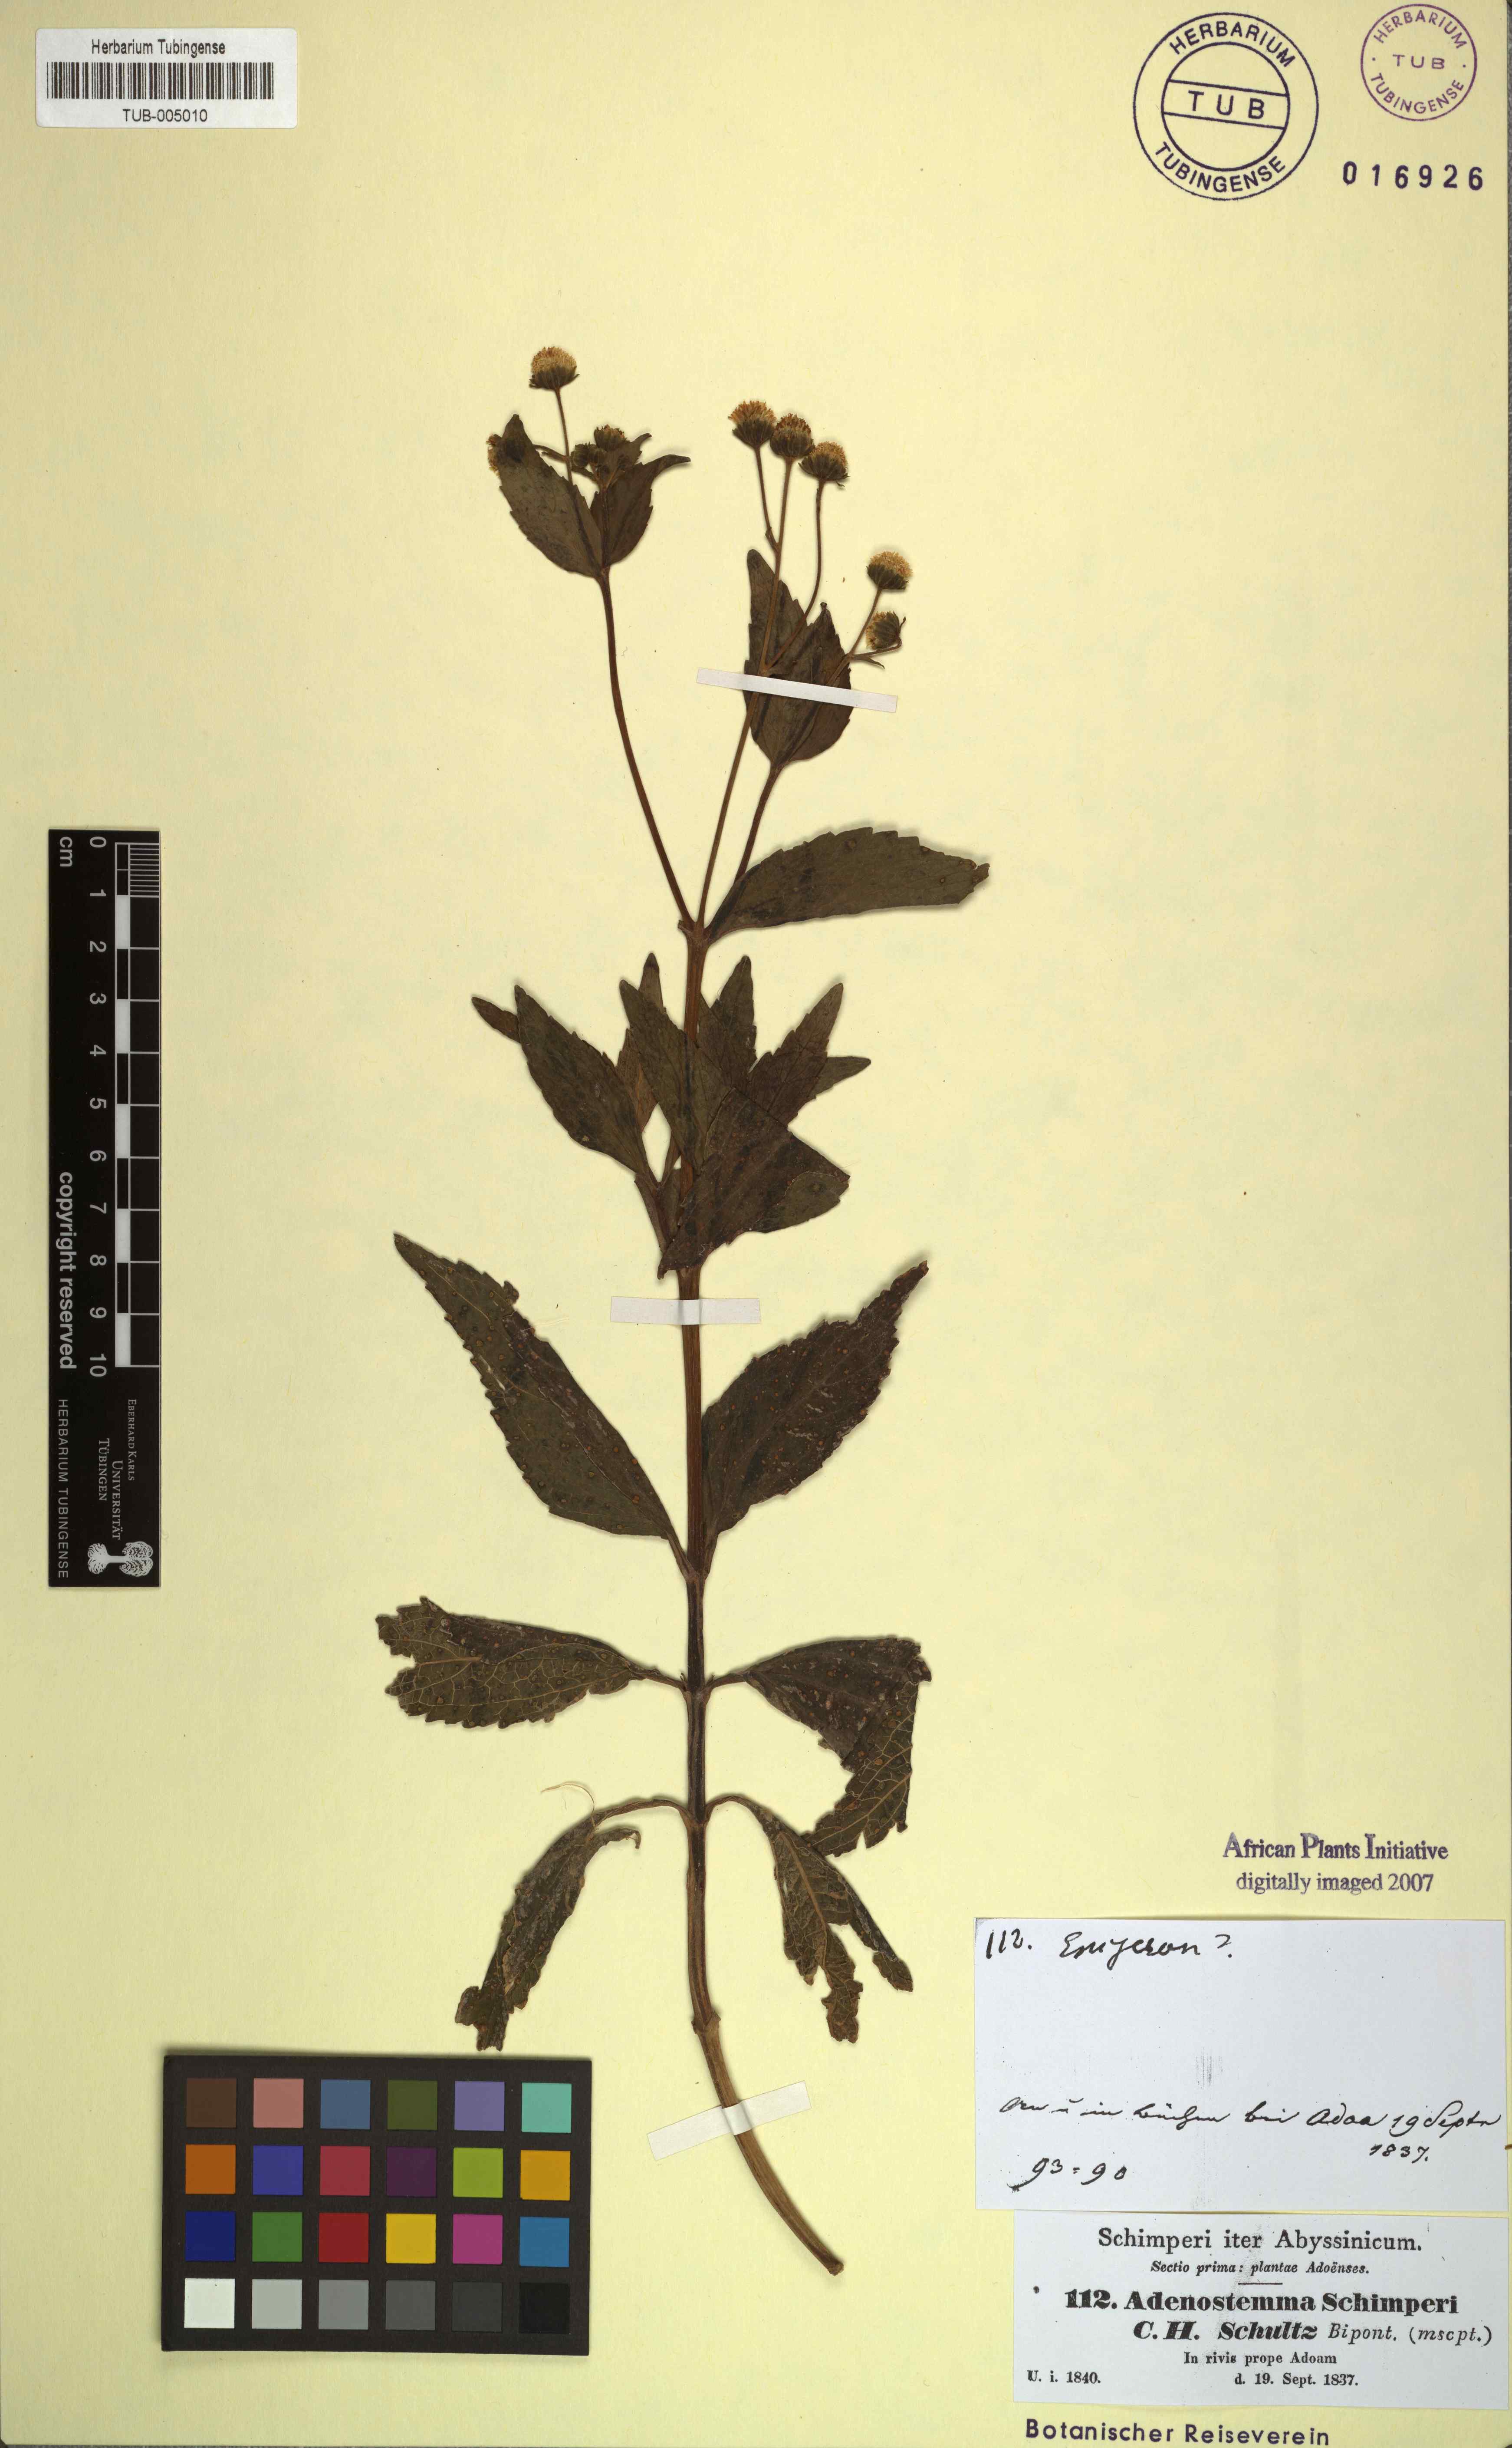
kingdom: Plantae
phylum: Tracheophyta
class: Magnoliopsida
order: Asterales
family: Asteraceae
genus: Adenostemma
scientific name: Adenostemma caffrum
